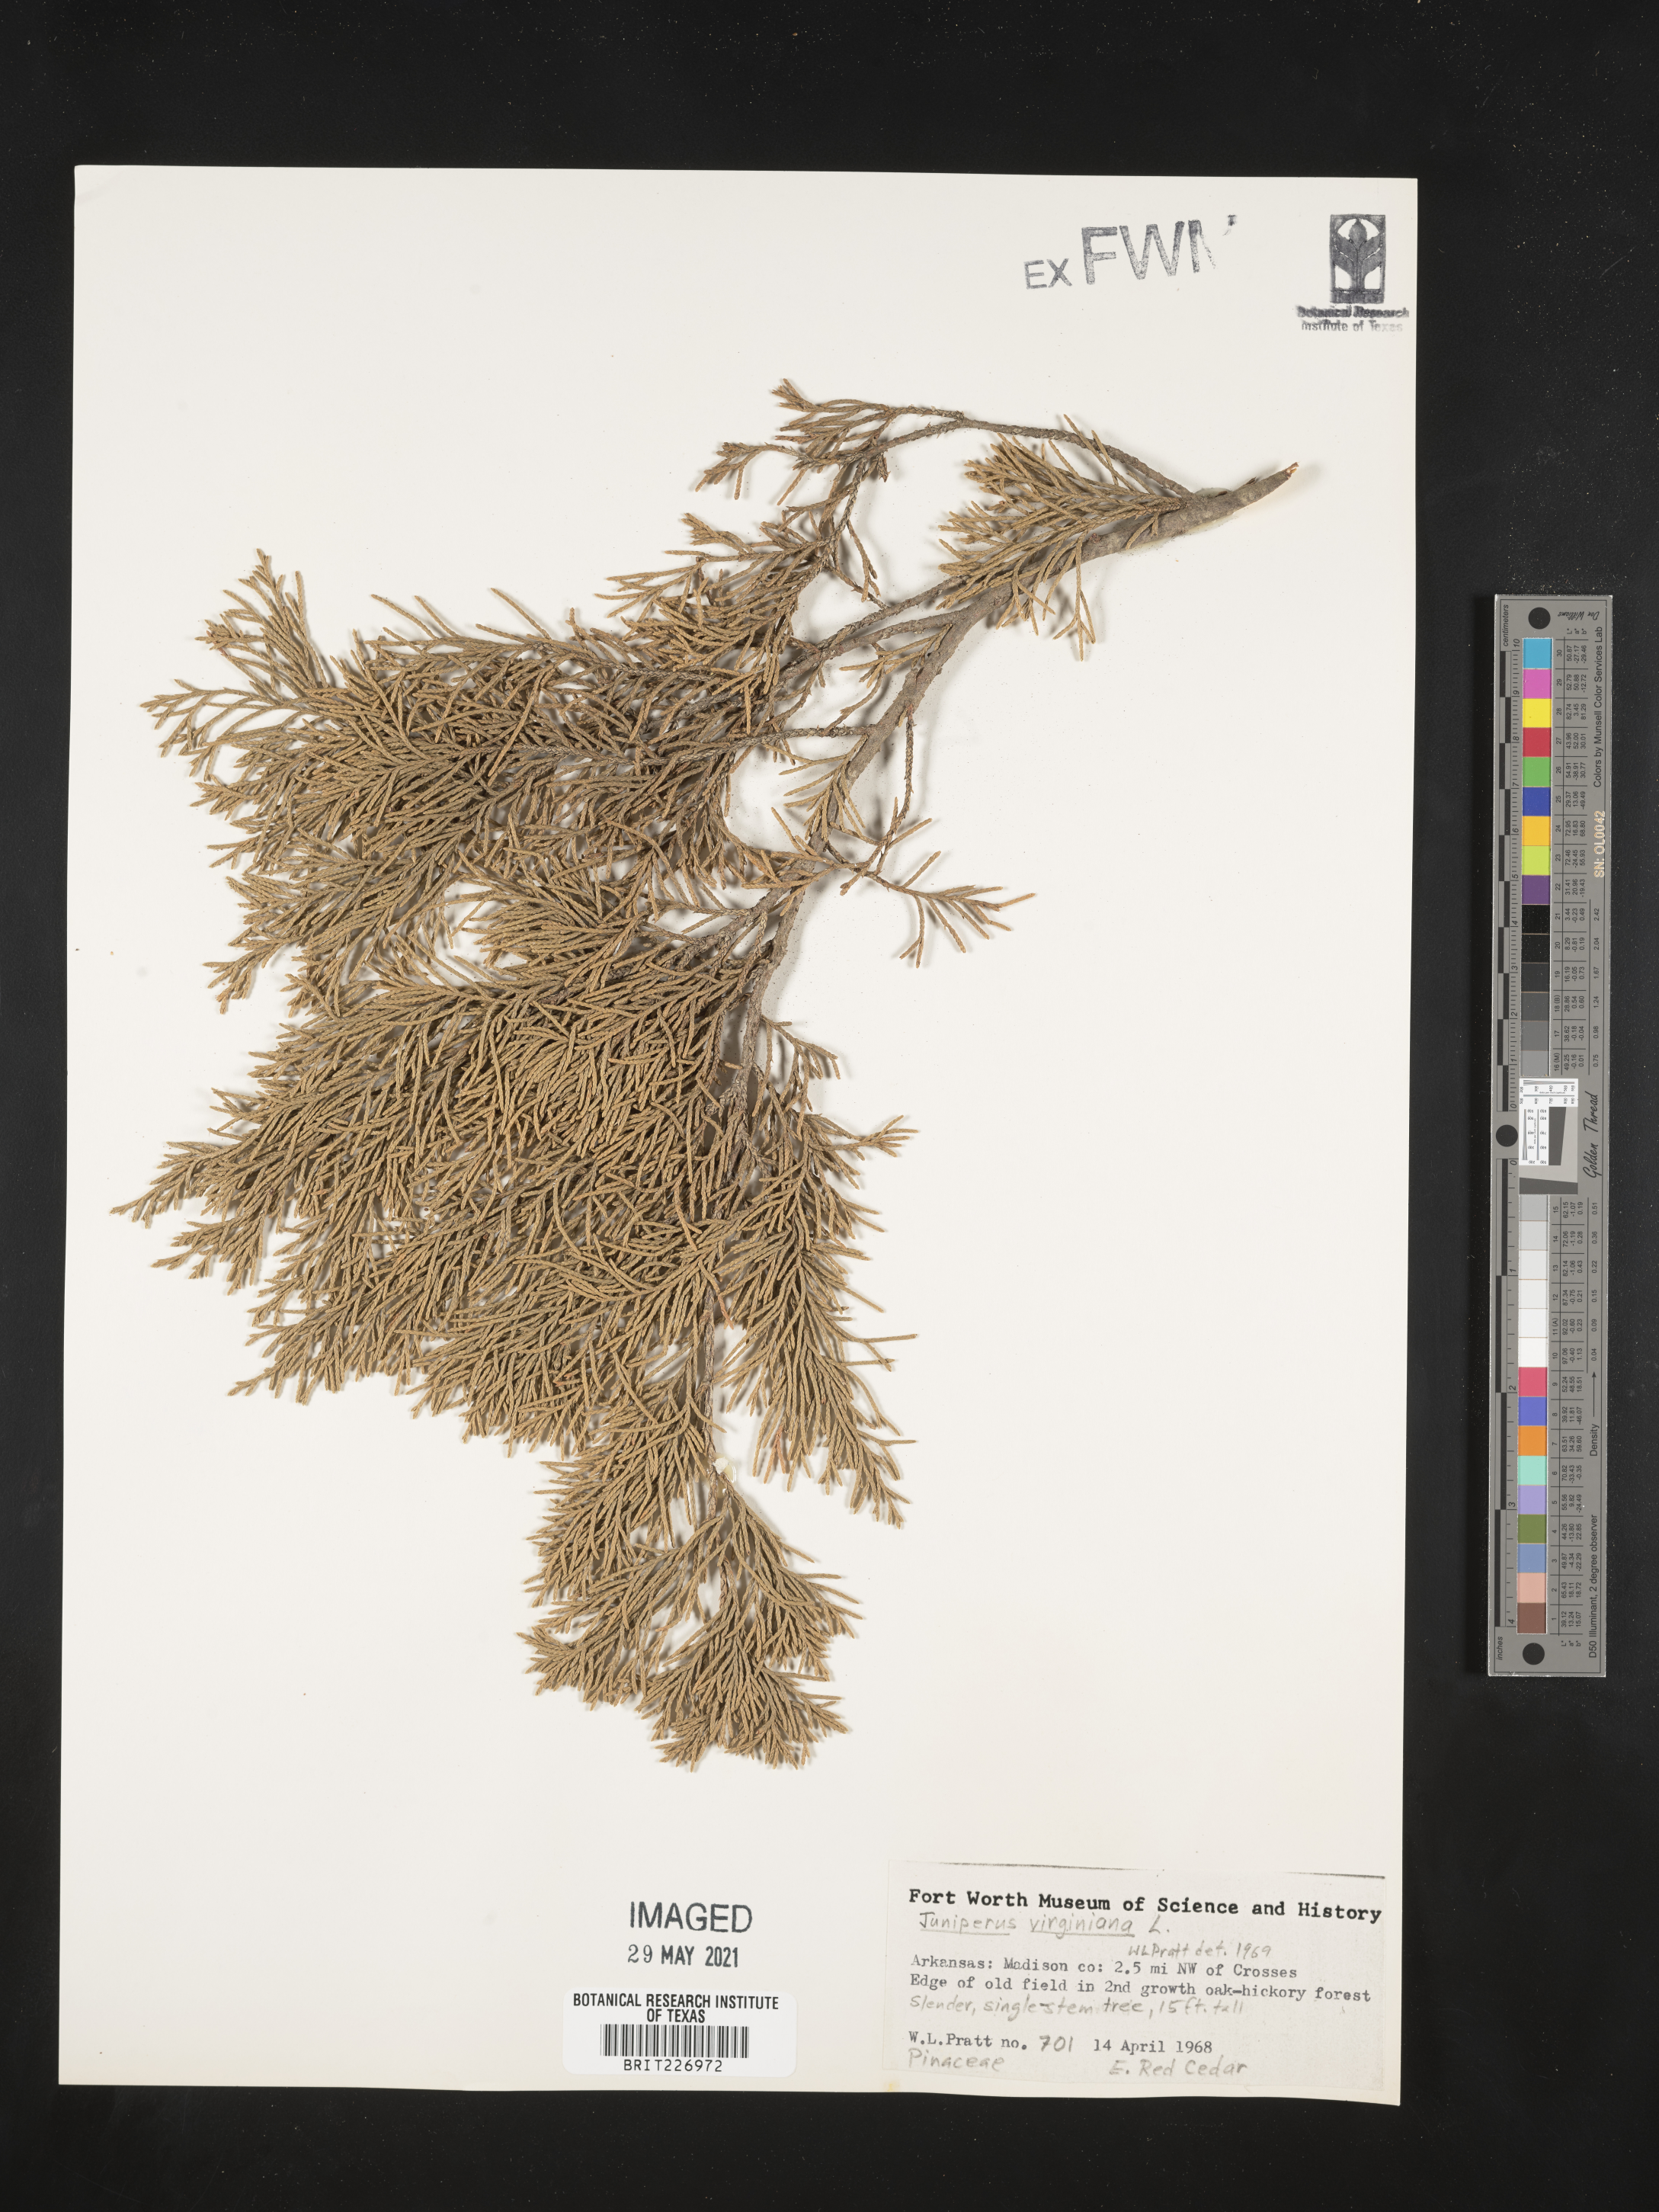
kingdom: Plantae
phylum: Tracheophyta
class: Pinopsida
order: Pinales
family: Cupressaceae
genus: Juniperus
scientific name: Juniperus virginiana
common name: Red juniper
